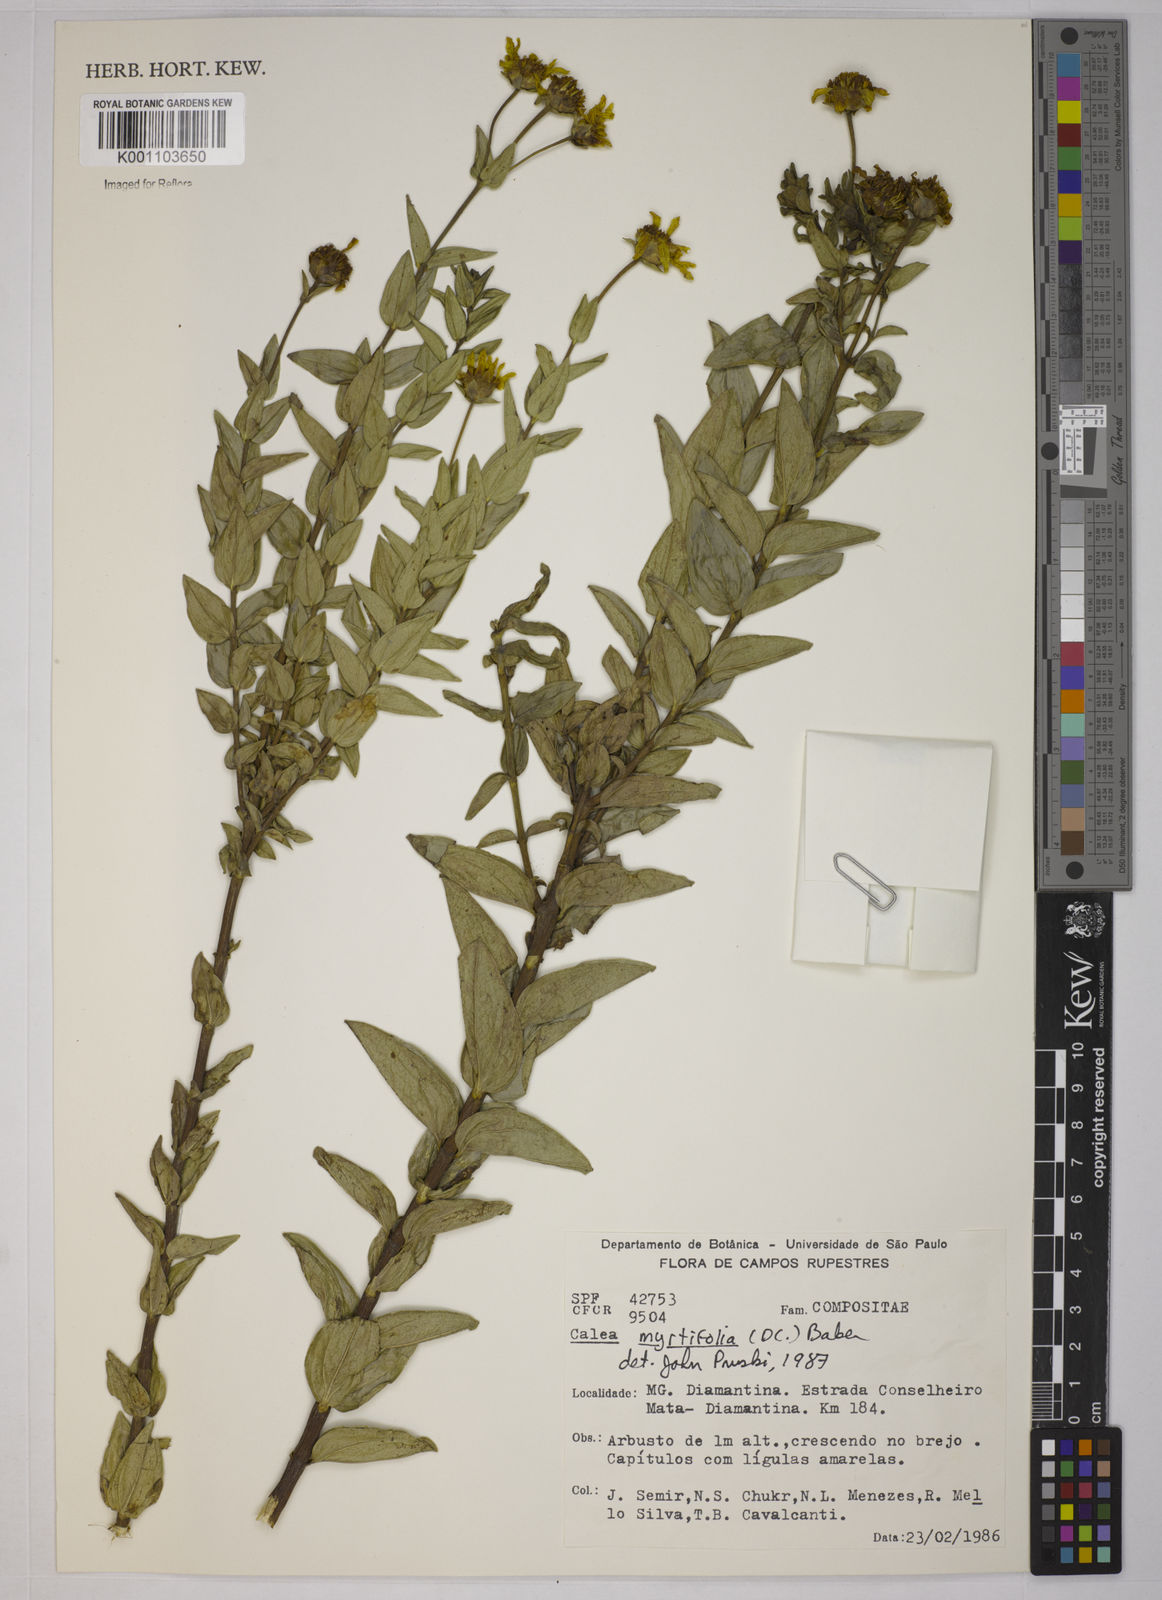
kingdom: Plantae
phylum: Tracheophyta
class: Magnoliopsida
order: Asterales
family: Asteraceae
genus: Calea
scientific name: Calea myrtifolia
